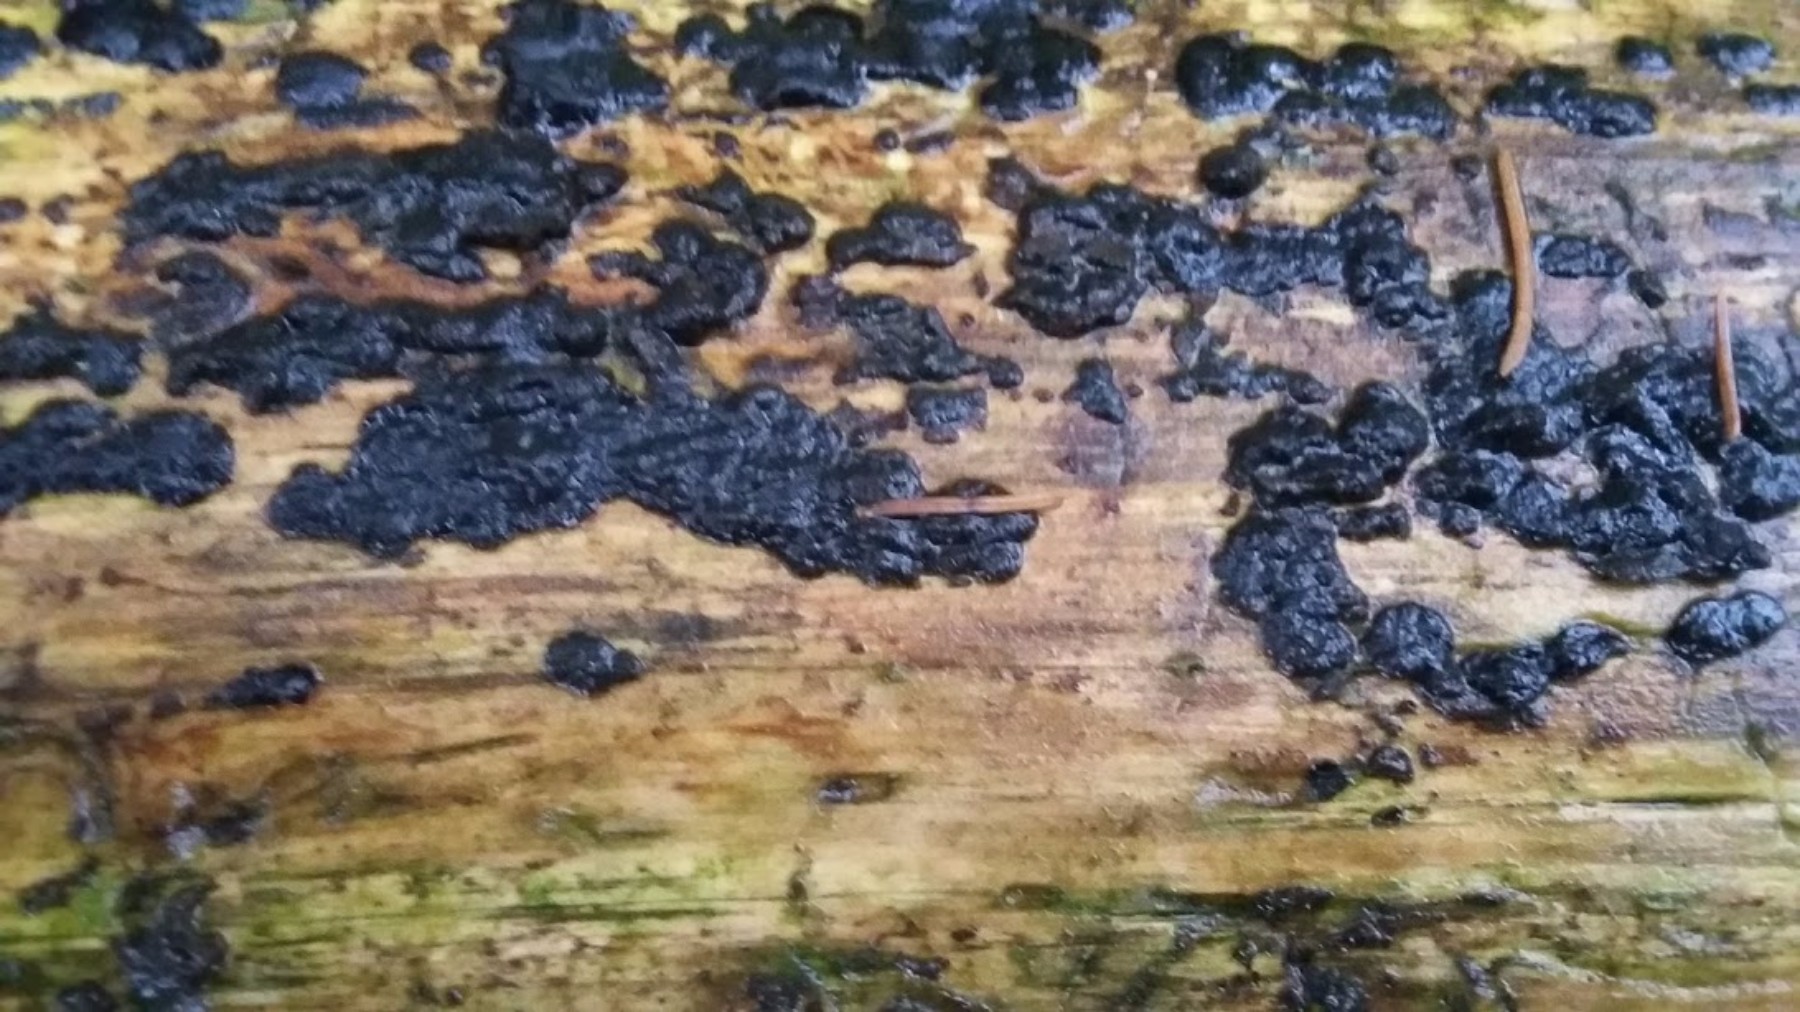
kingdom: Fungi
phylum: Basidiomycota
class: Agaricomycetes
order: Auriculariales
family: Auriculariaceae
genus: Exidia
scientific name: Exidia pithya
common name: gran-bævretop
